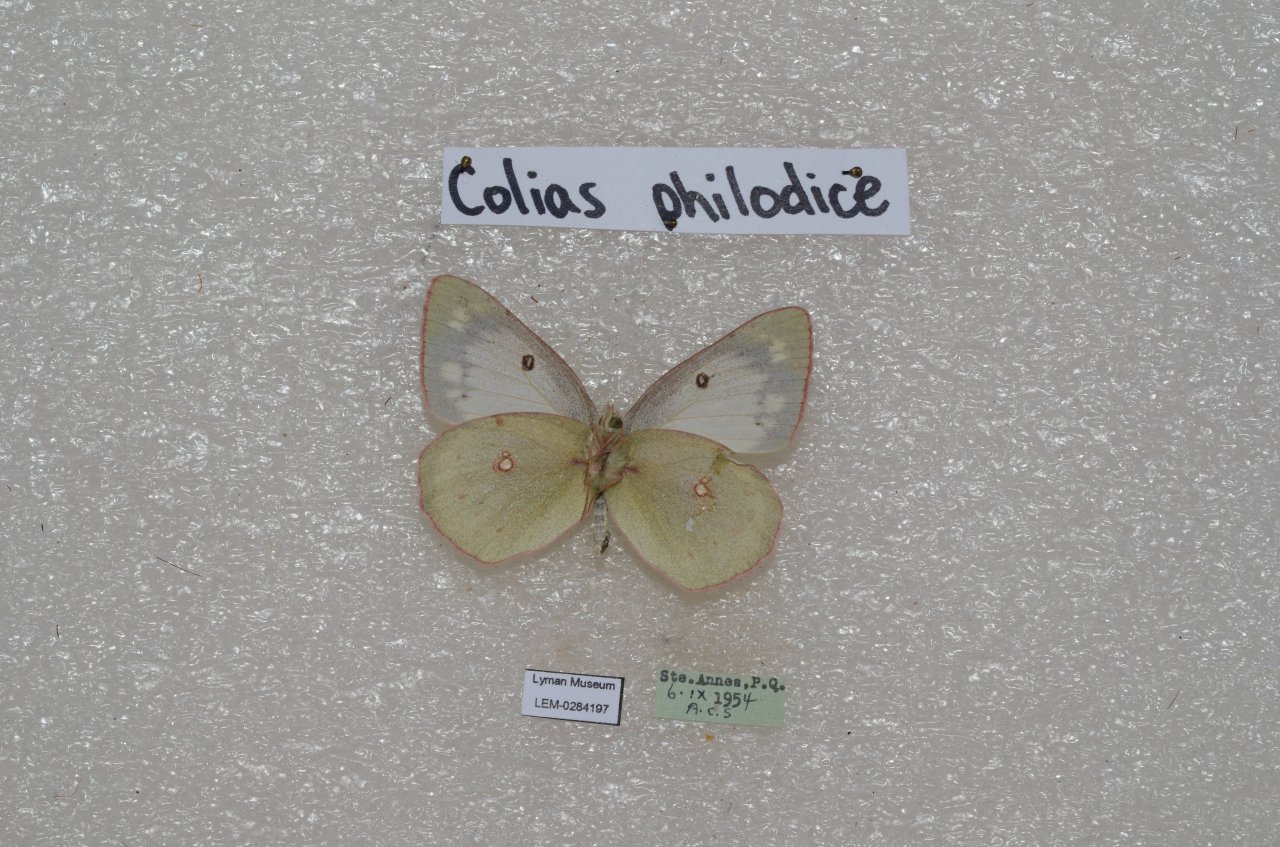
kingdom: Animalia
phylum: Arthropoda
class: Insecta
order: Lepidoptera
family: Pieridae
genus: Colias
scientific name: Colias philodice
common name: Clouded Sulphur
